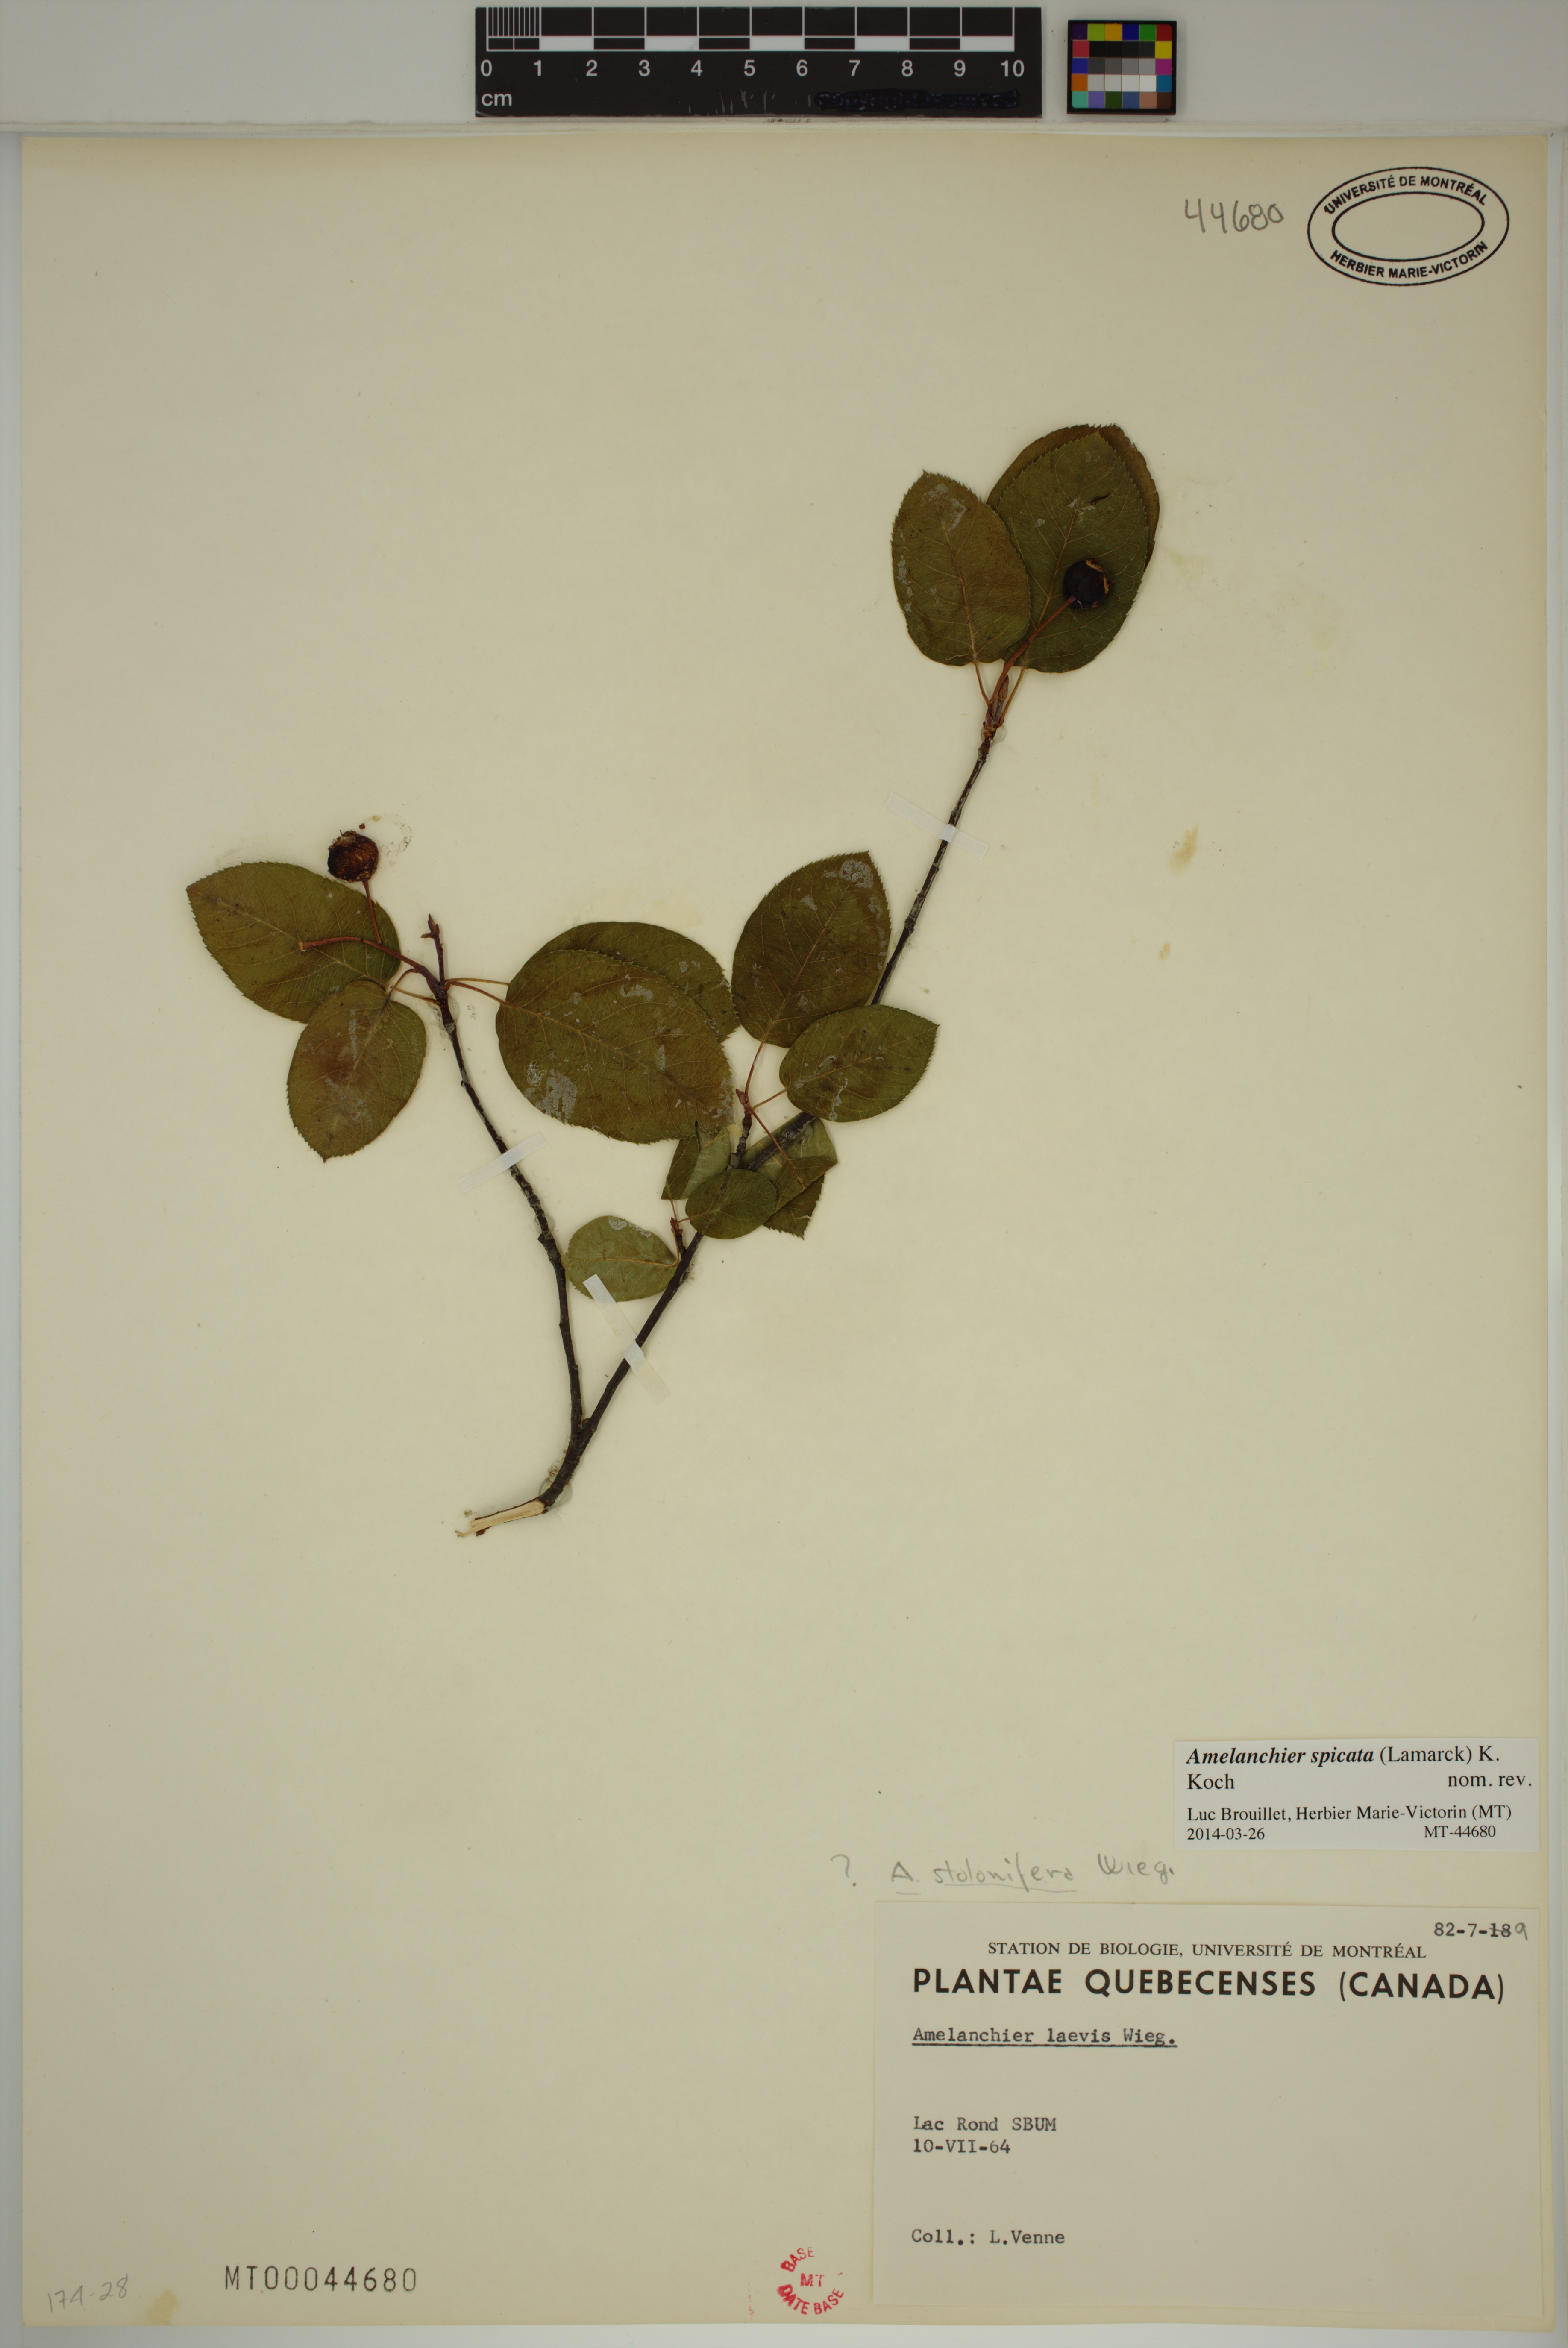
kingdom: Plantae
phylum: Tracheophyta
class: Magnoliopsida
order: Rosales
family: Rosaceae
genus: Amelanchier
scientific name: Amelanchier humilis
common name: Low juneberry
